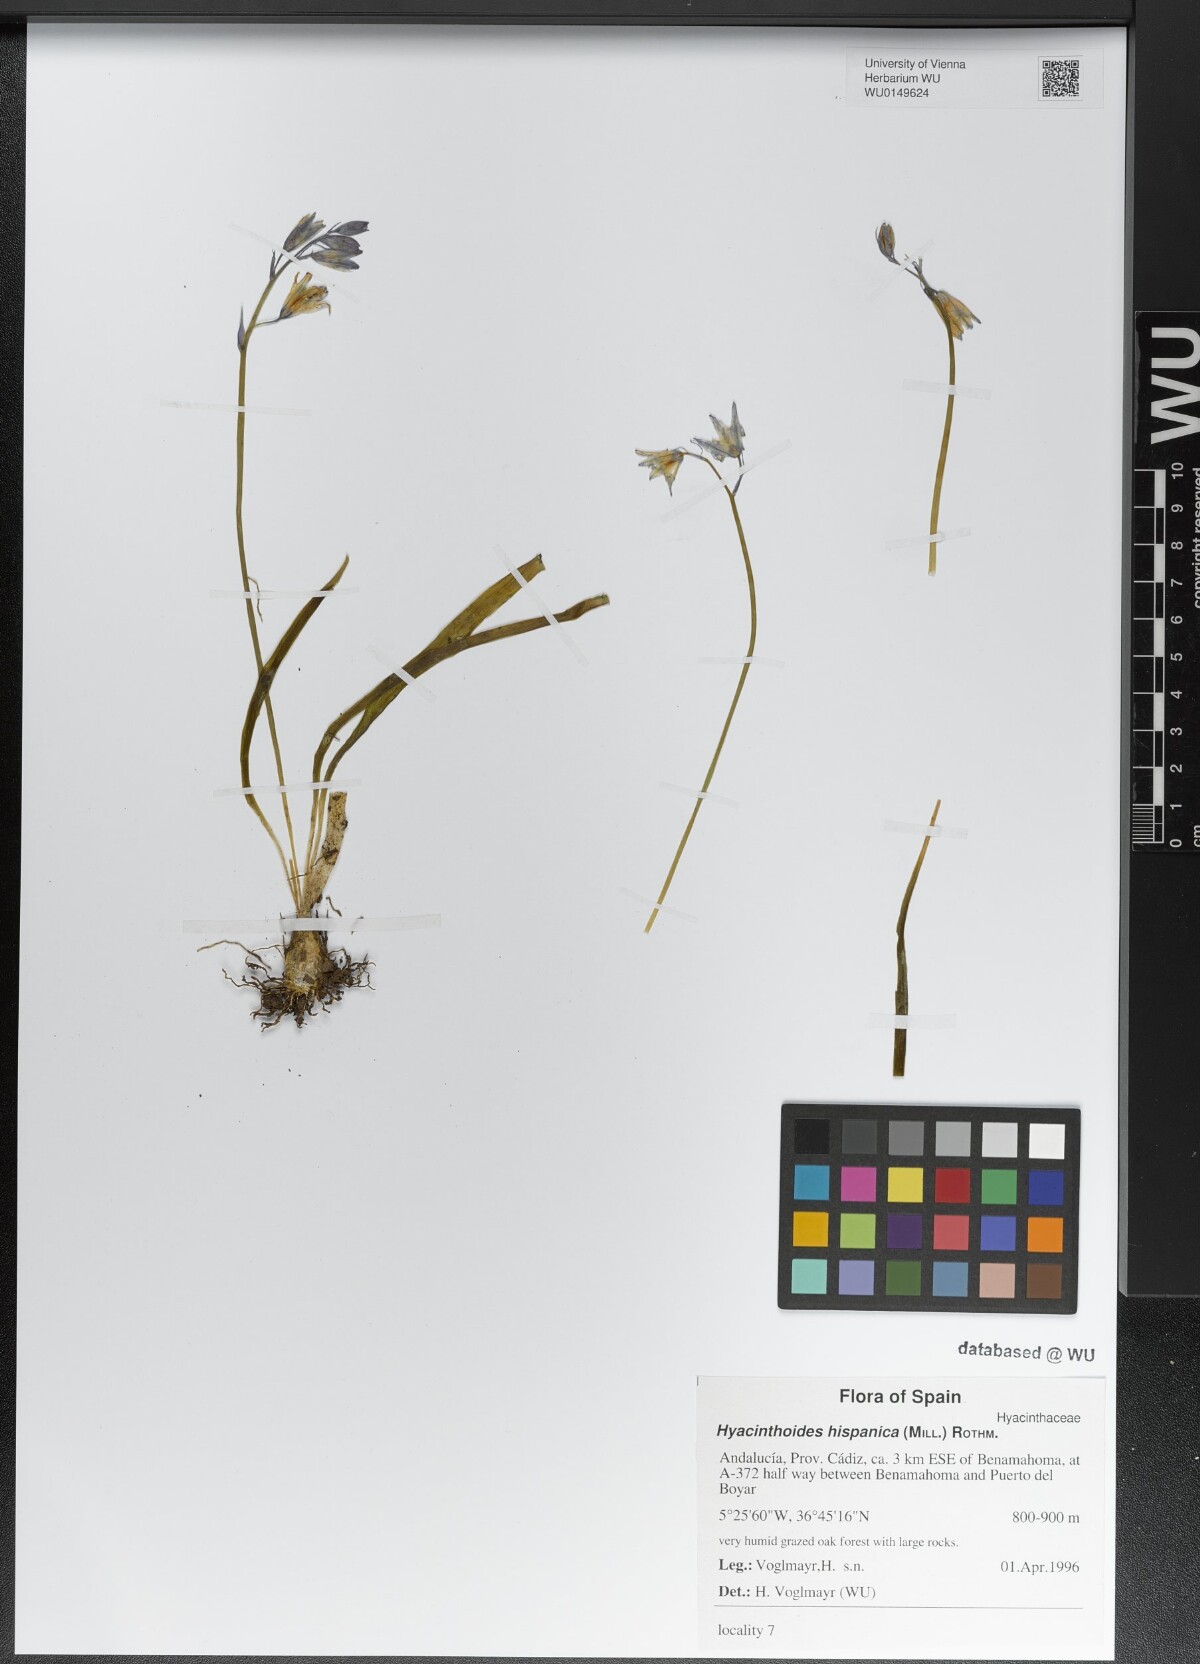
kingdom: Plantae
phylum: Tracheophyta
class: Liliopsida
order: Asparagales
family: Asparagaceae
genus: Hyacinthoides
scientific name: Hyacinthoides hispanica
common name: Spanish bluebell
